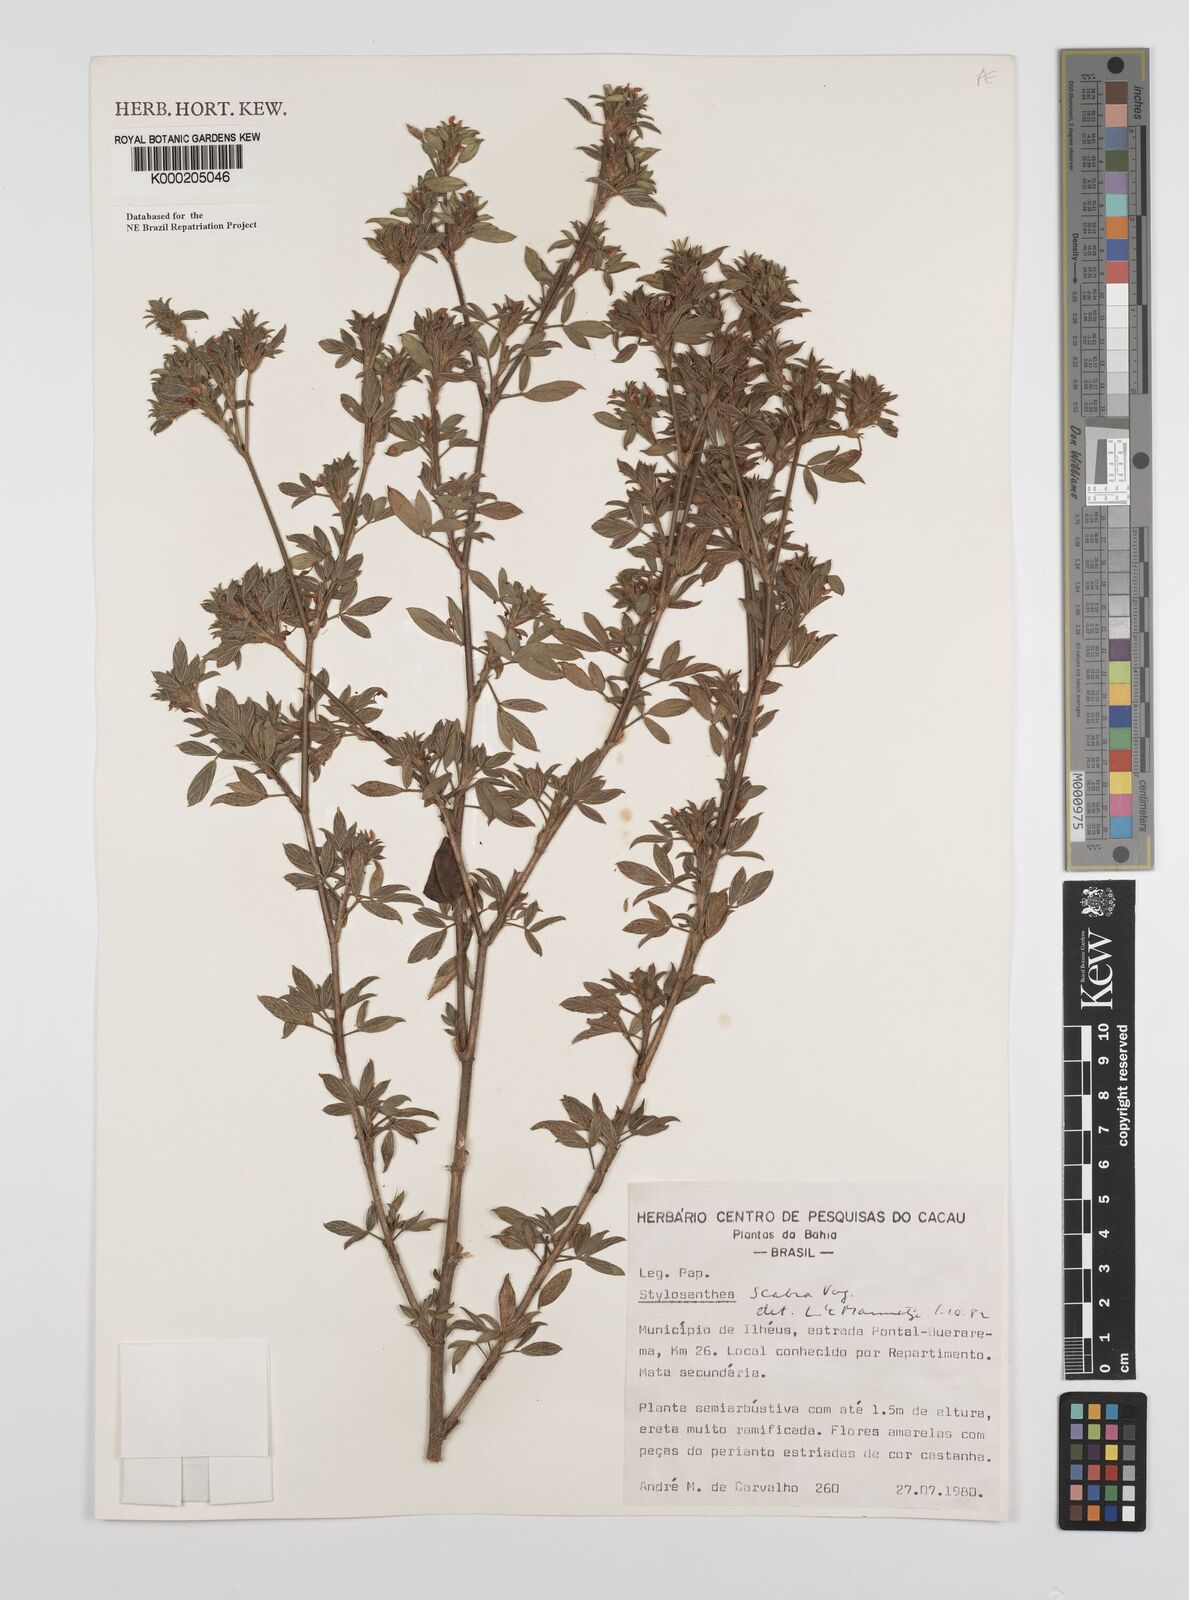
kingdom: Plantae
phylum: Tracheophyta
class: Magnoliopsida
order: Fabales
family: Fabaceae
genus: Stylosanthes
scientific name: Stylosanthes scabra
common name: Pencilflower
